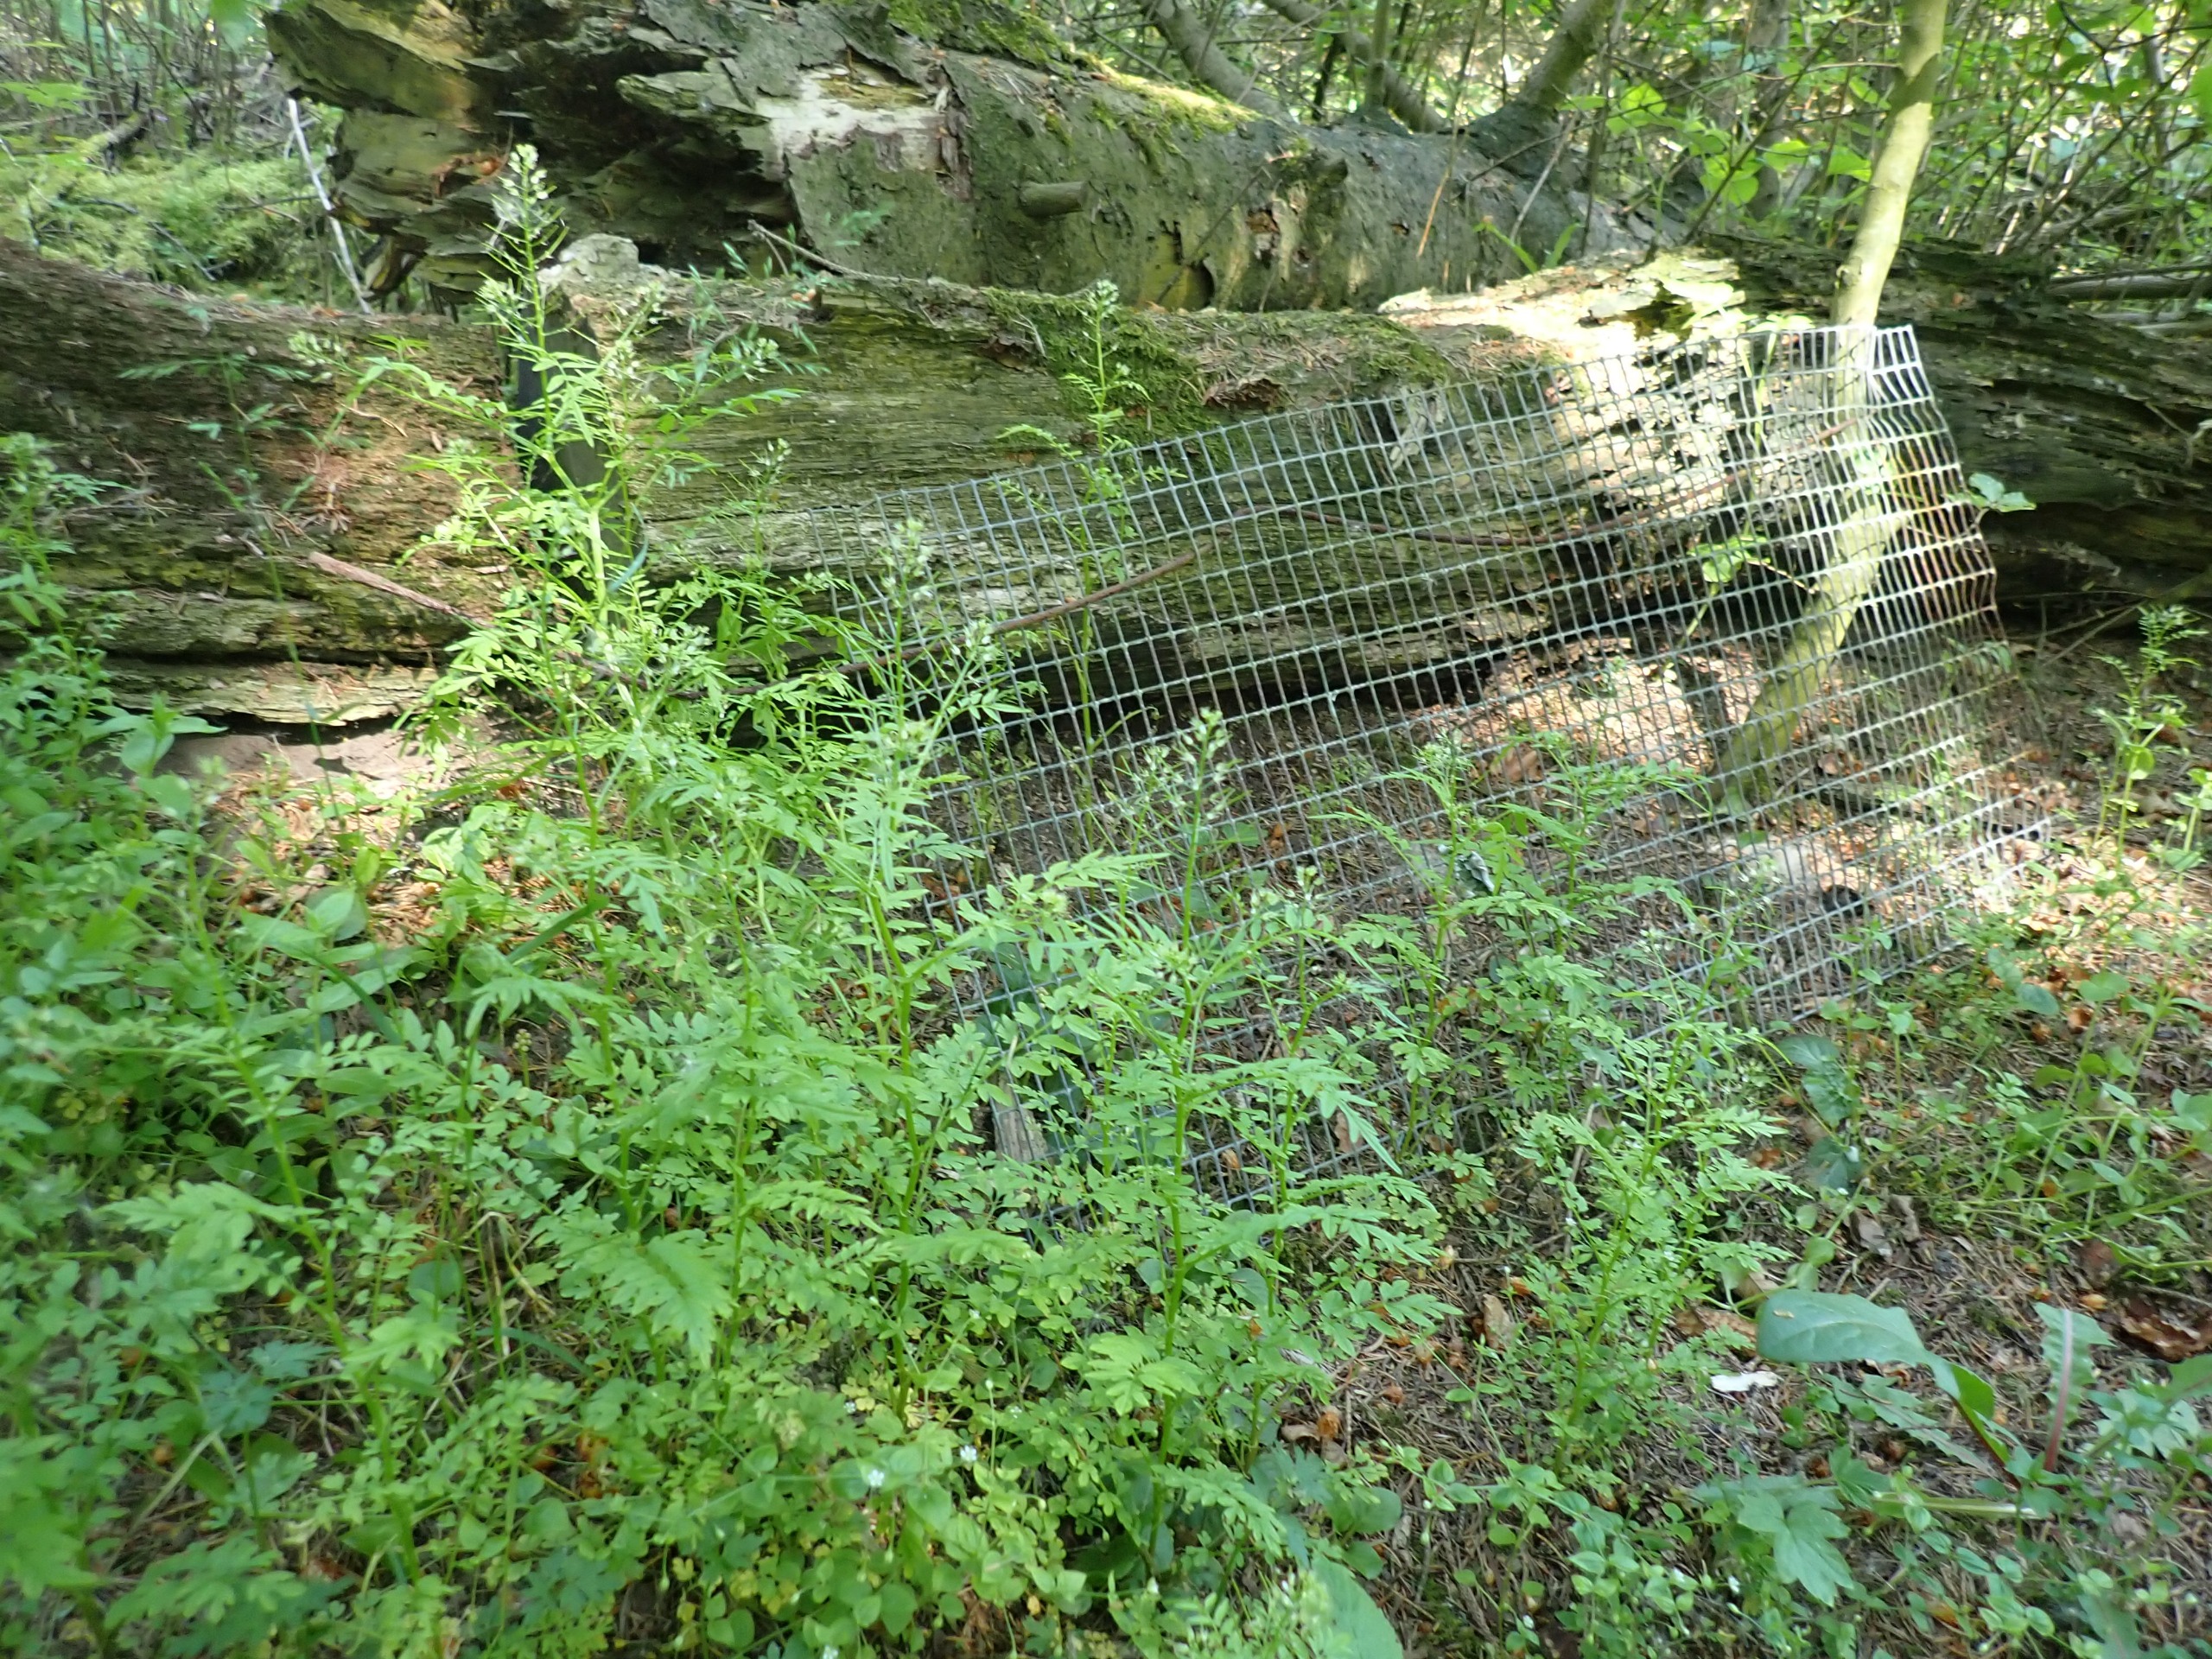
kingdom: Plantae
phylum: Tracheophyta
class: Magnoliopsida
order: Brassicales
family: Brassicaceae
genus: Cardamine
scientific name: Cardamine impatiens
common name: Kronløs springklap
